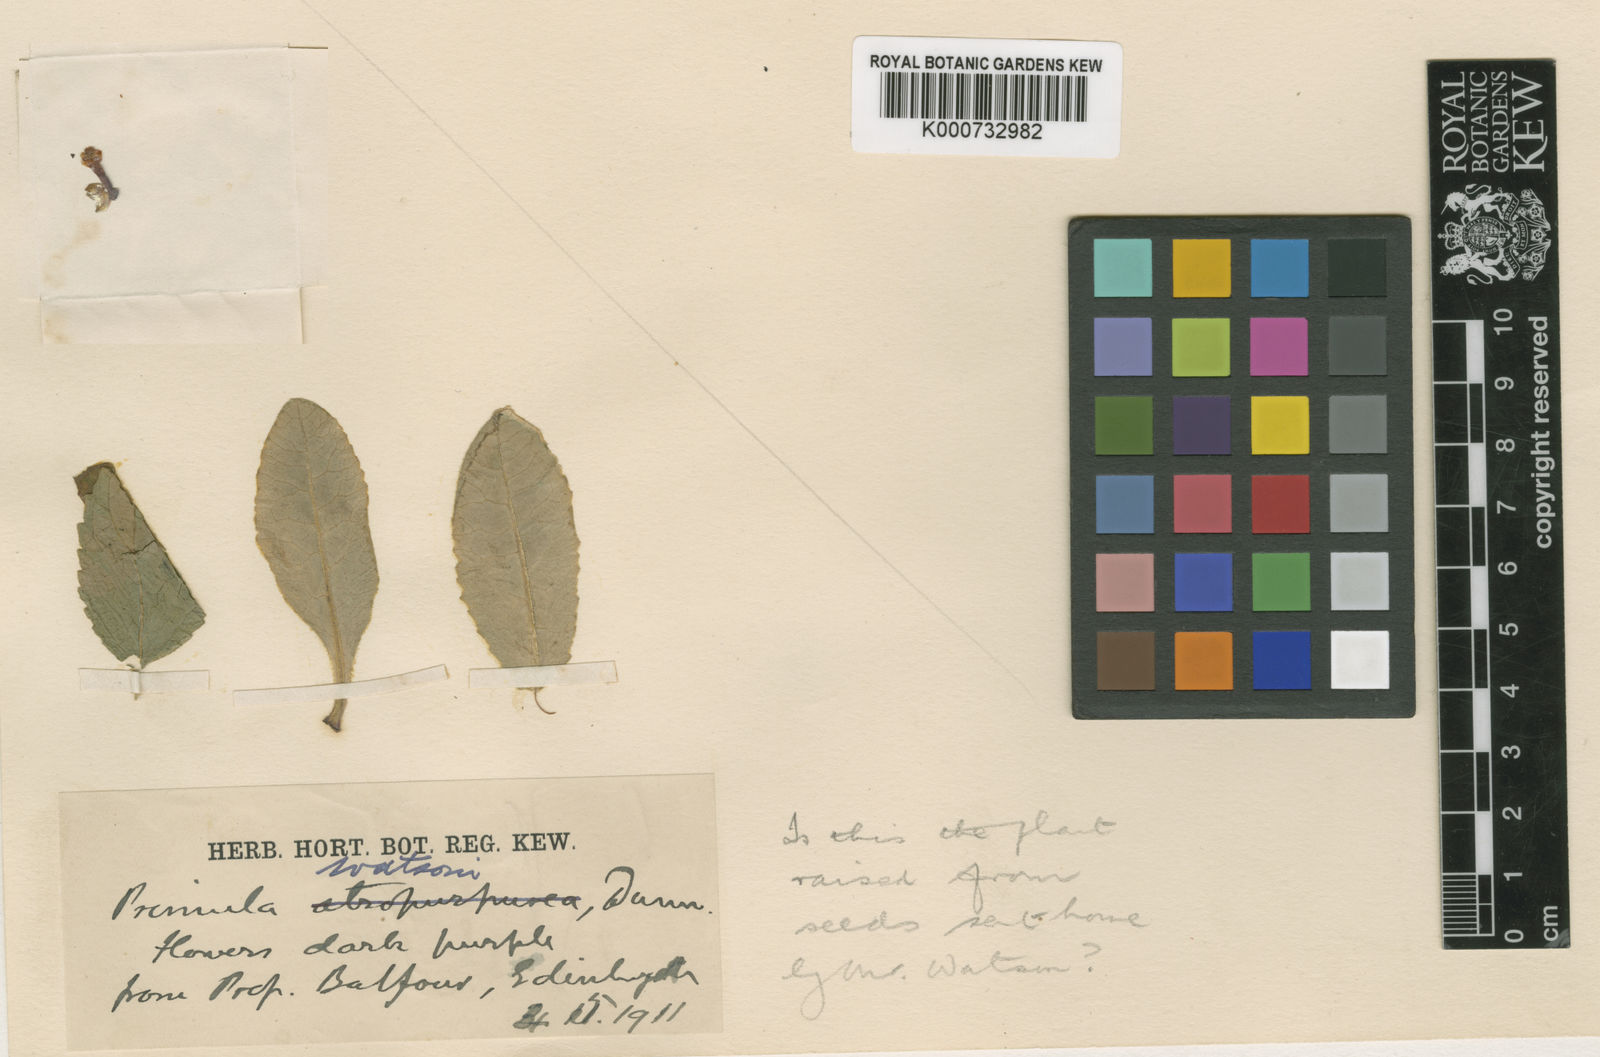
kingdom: Plantae
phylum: Tracheophyta
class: Magnoliopsida
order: Ericales
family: Primulaceae
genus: Primula
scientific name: Primula watsonii
